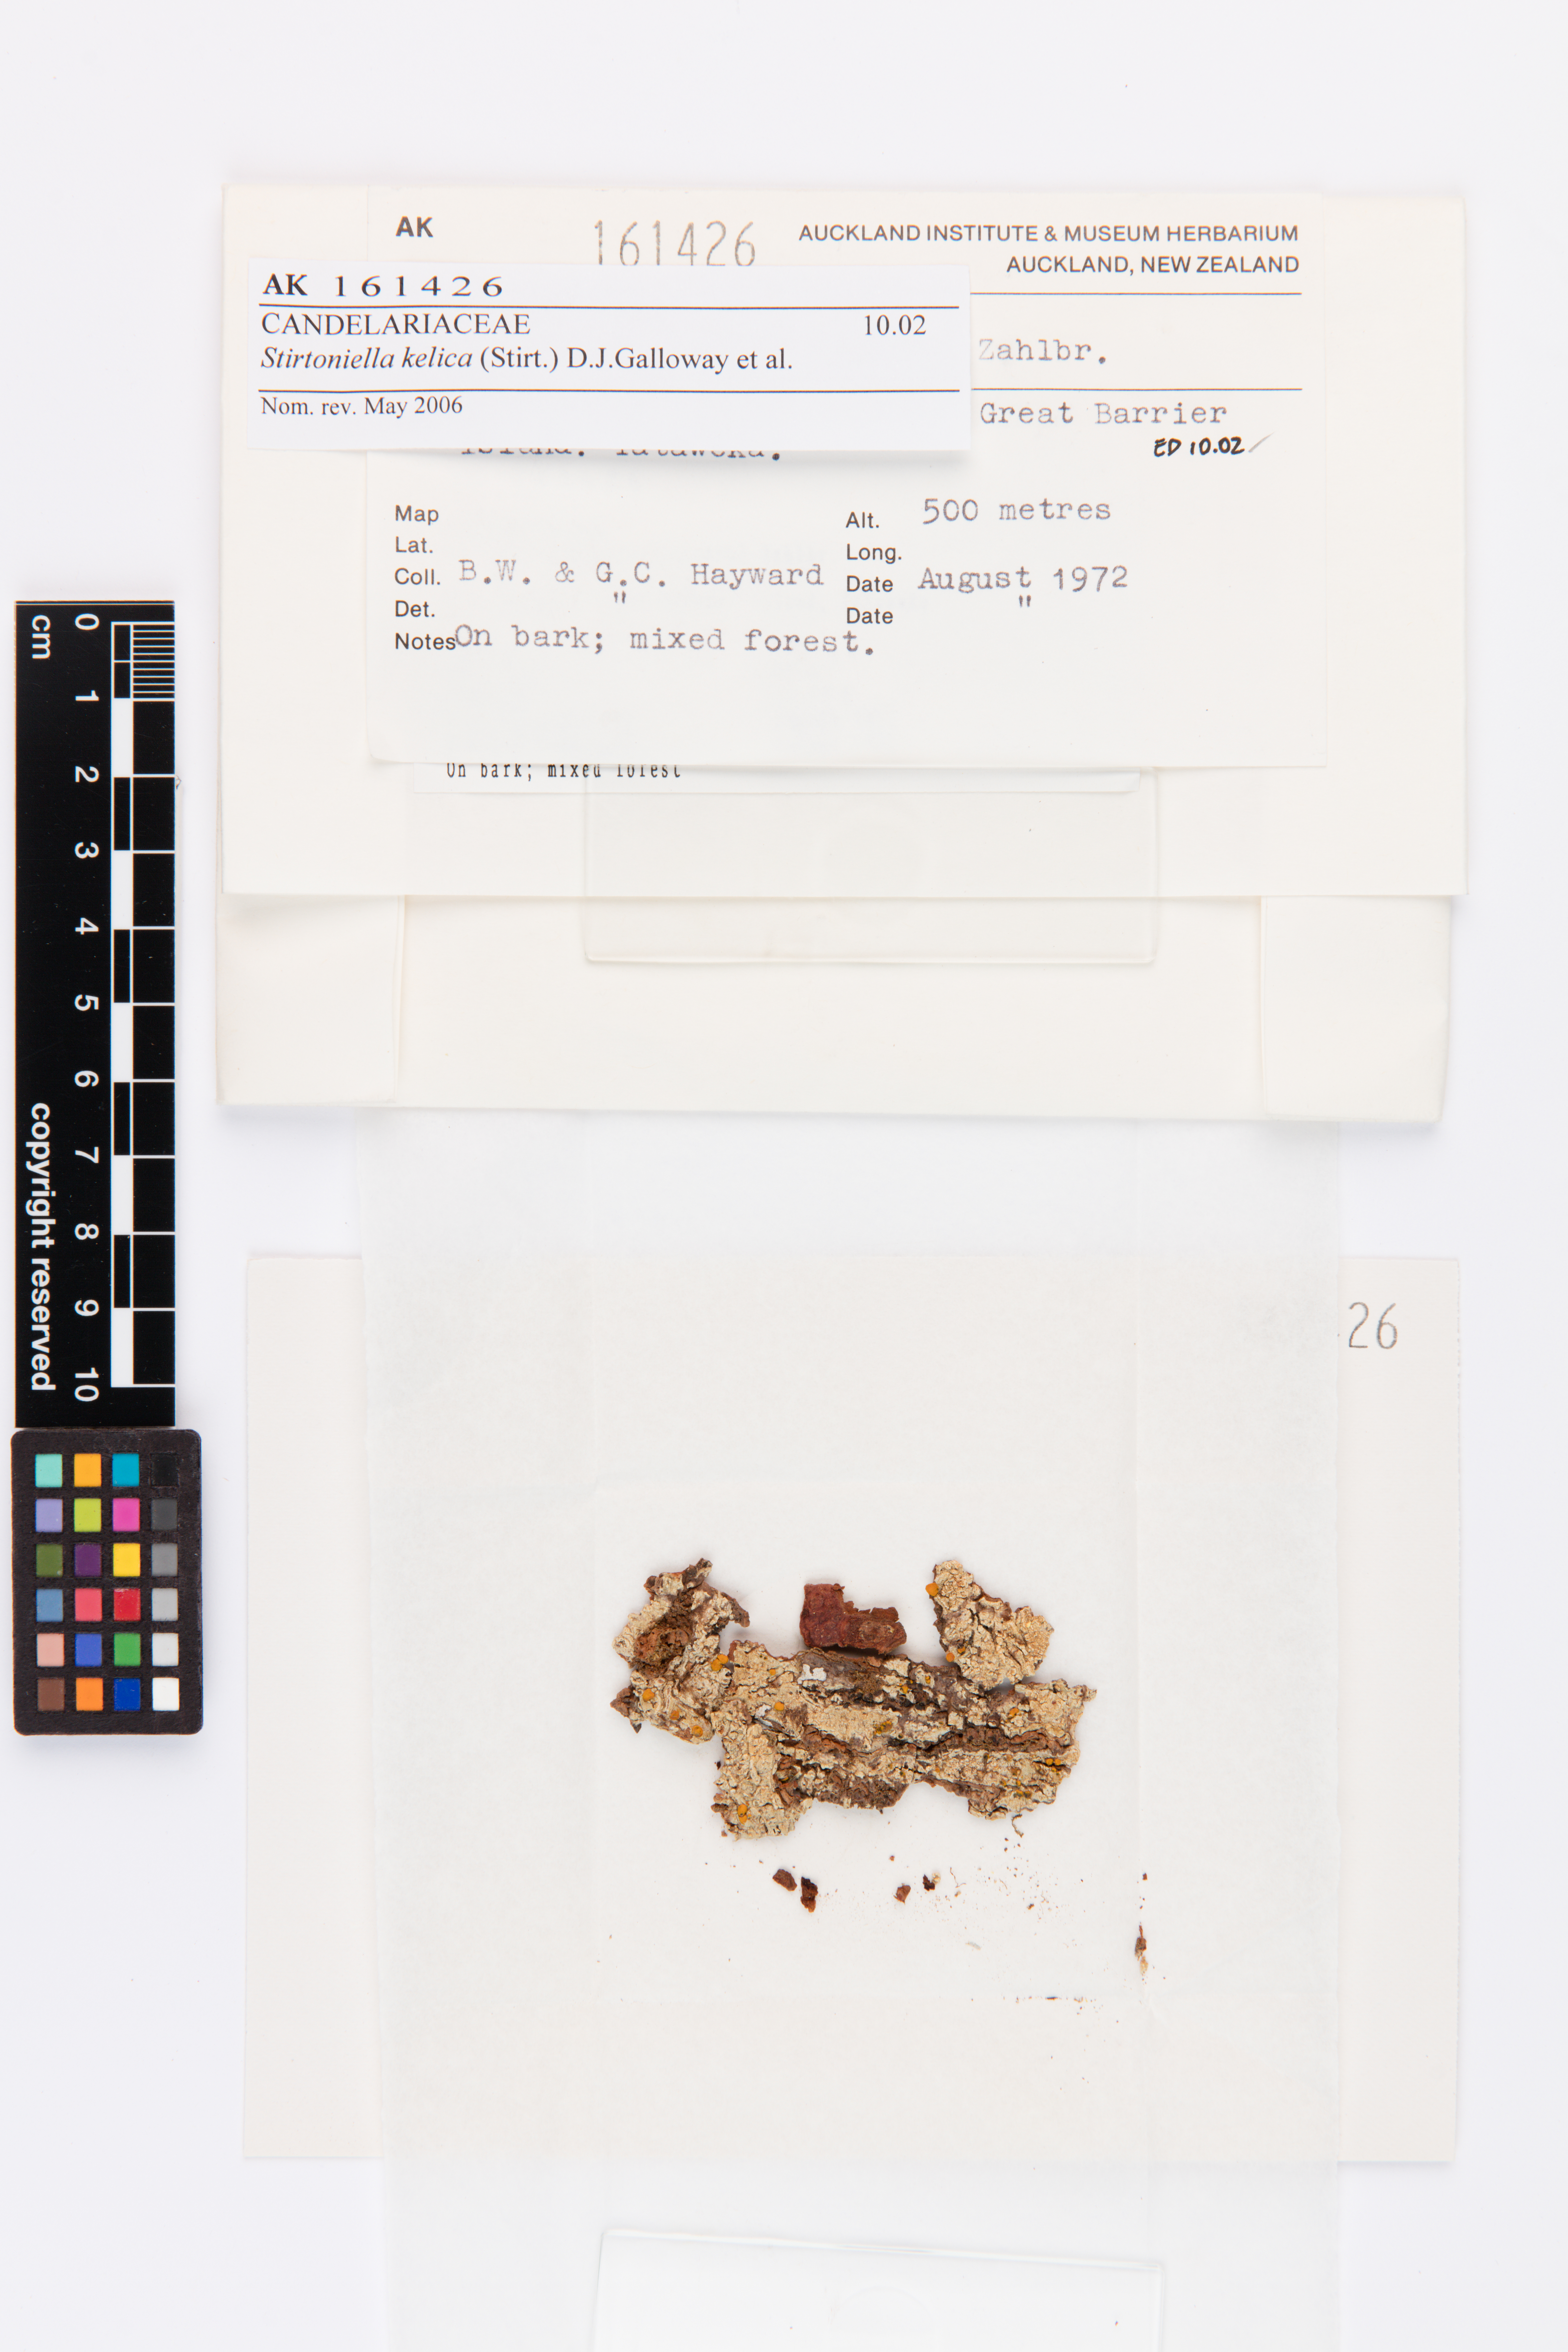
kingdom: Fungi
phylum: Ascomycota
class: Lecanoromycetes
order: Lecanorales
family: Ramalinaceae
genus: Stirtoniella
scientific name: Stirtoniella kelica
